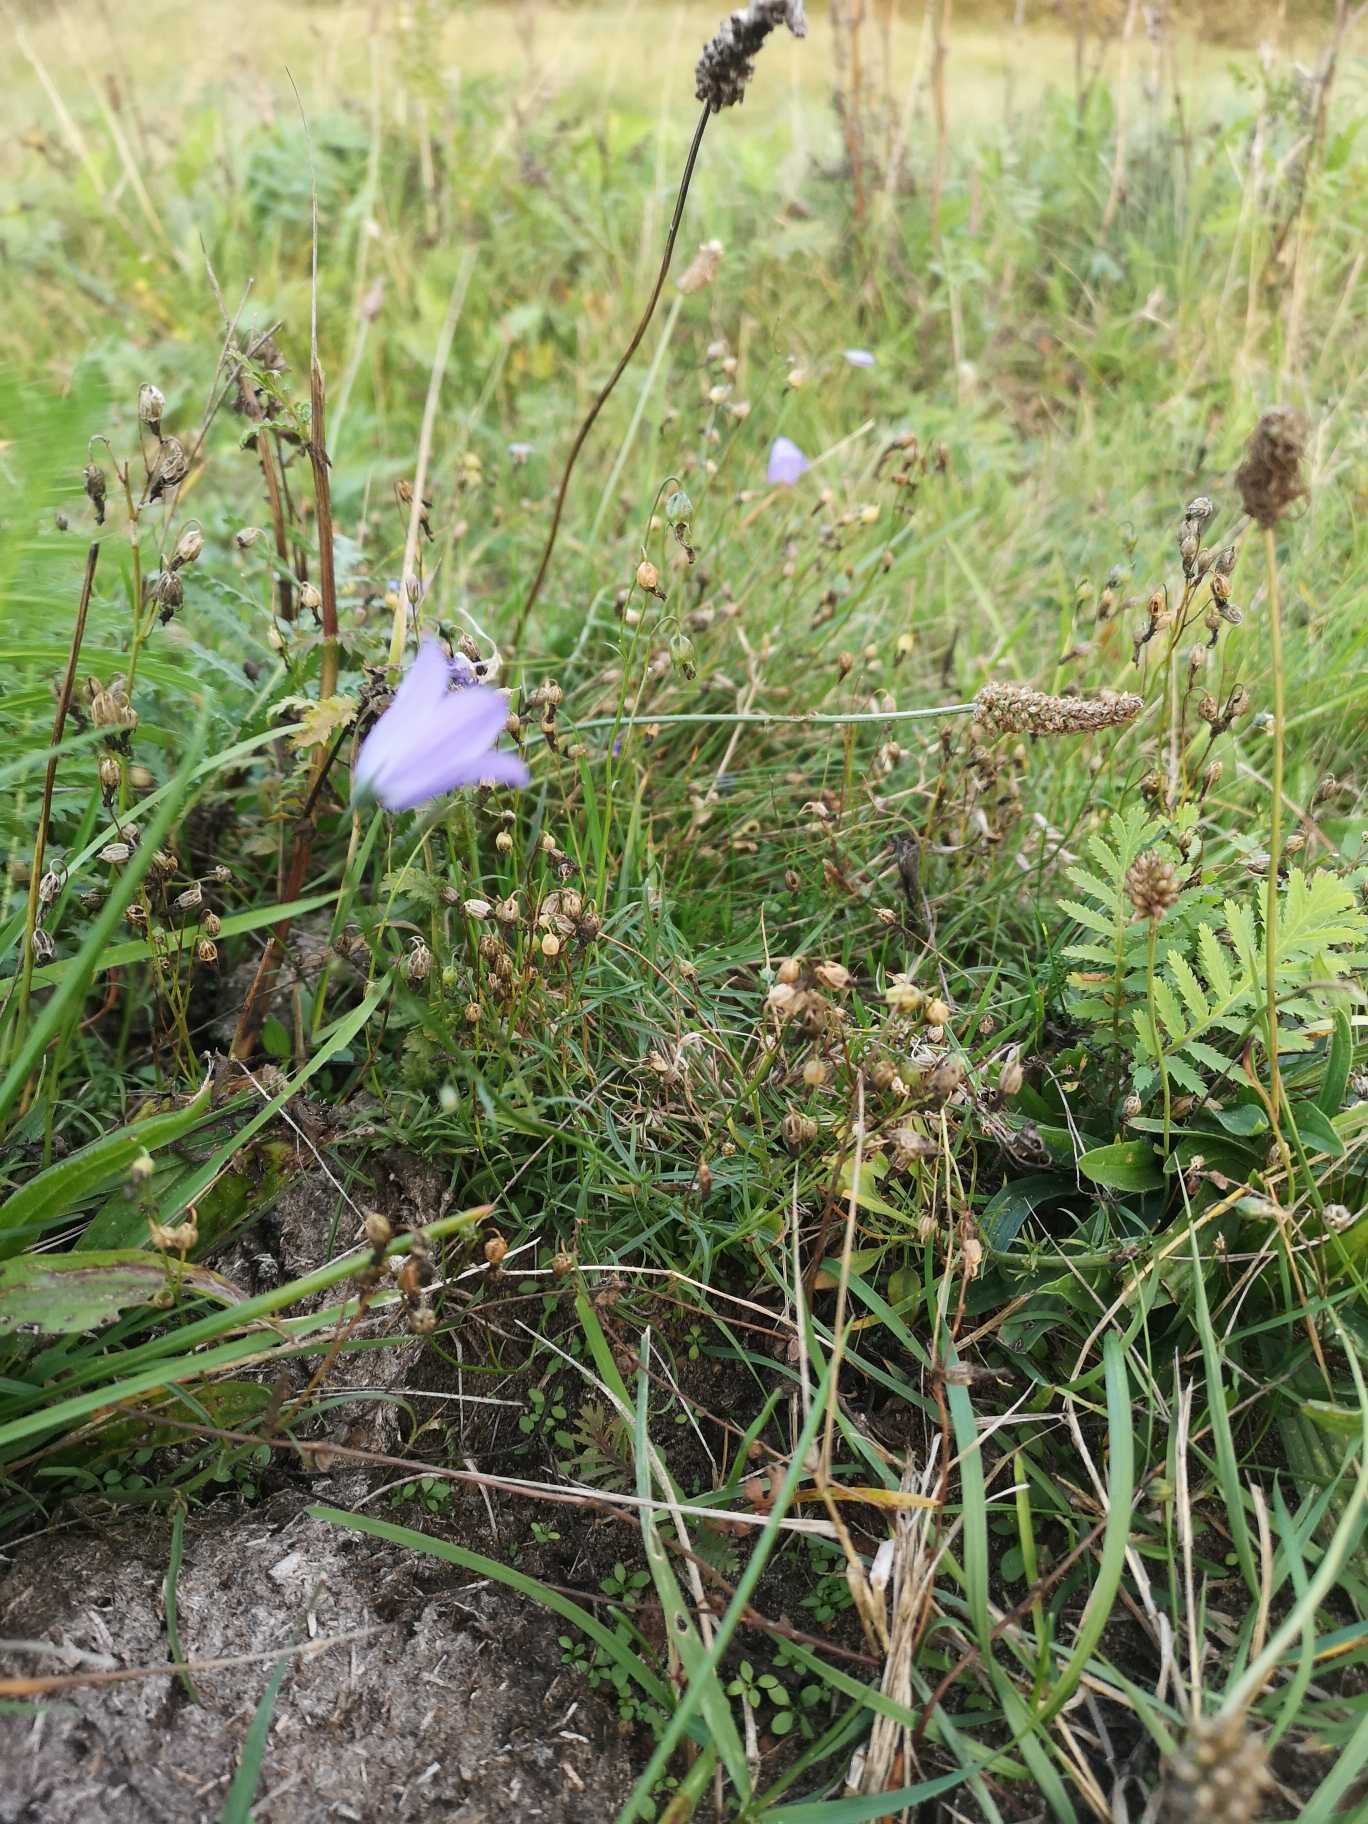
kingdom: Plantae
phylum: Tracheophyta
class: Magnoliopsida
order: Asterales
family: Campanulaceae
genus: Campanula
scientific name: Campanula rotundifolia
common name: Liden klokke
